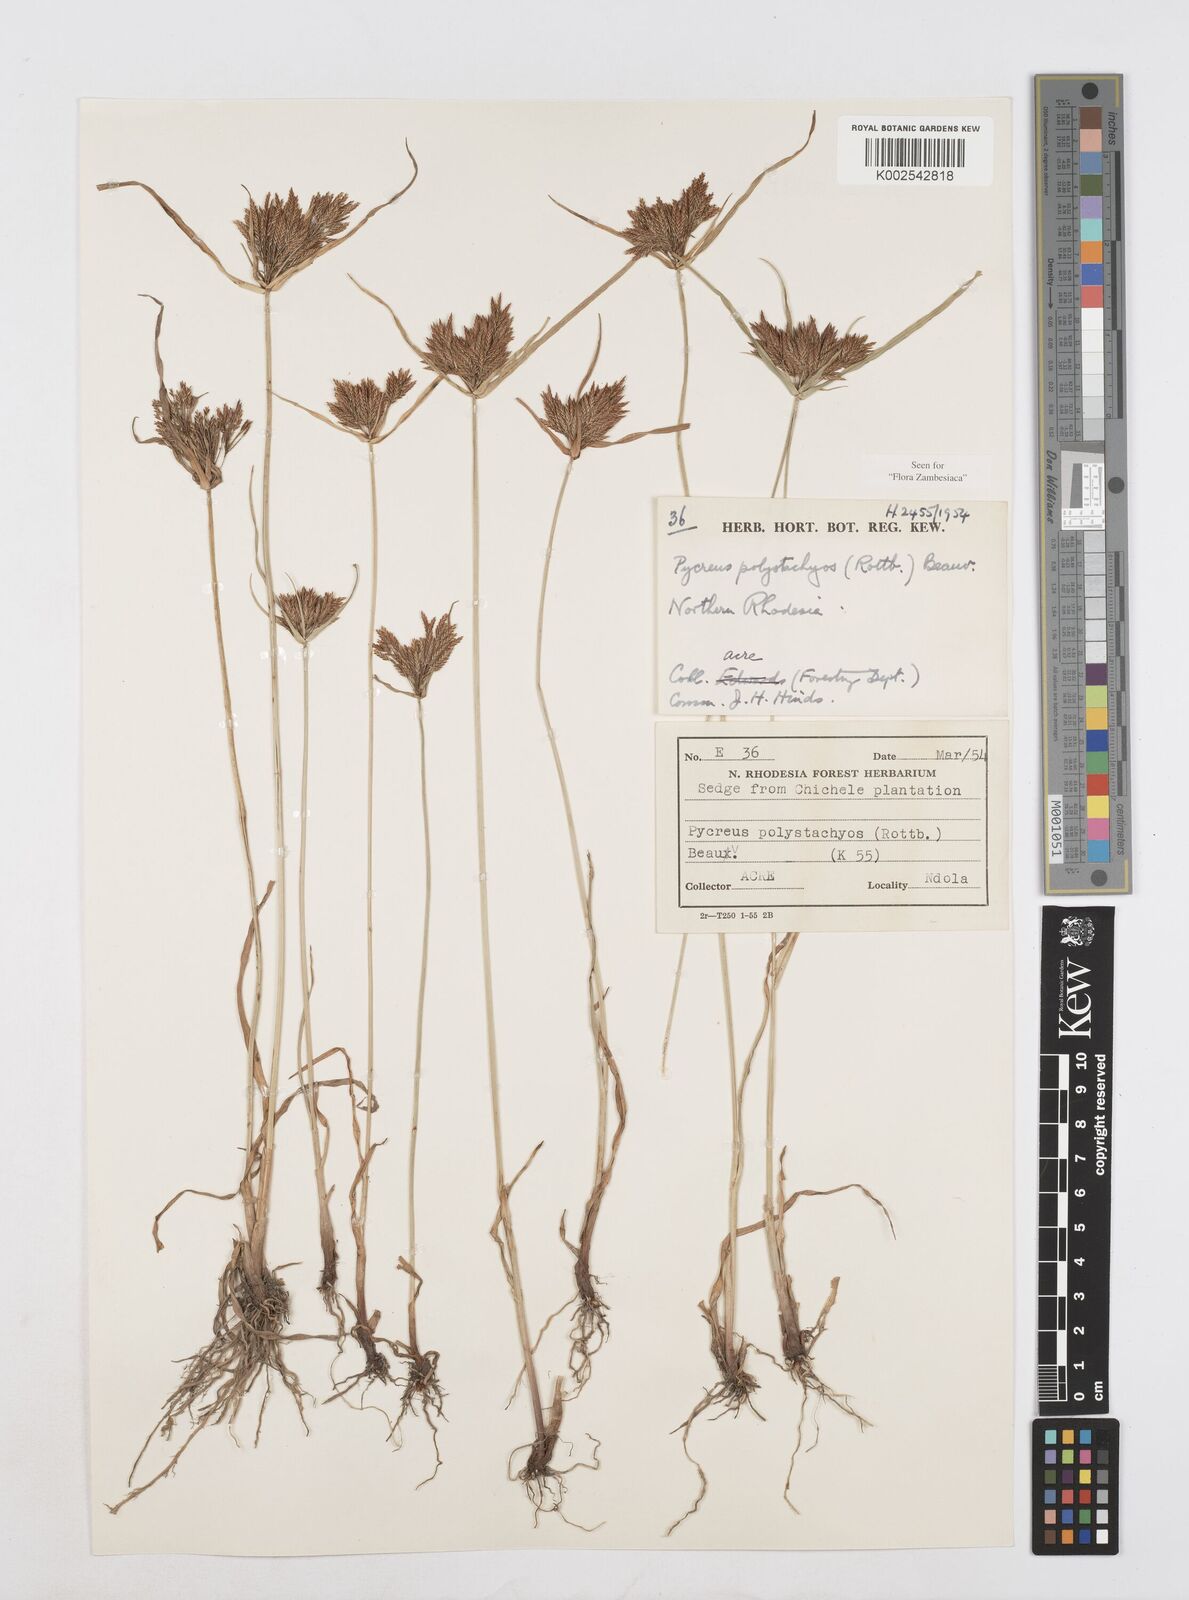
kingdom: Plantae
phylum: Tracheophyta
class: Liliopsida
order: Poales
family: Cyperaceae
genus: Cyperus
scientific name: Cyperus polystachyos
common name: Bunchy flat sedge
